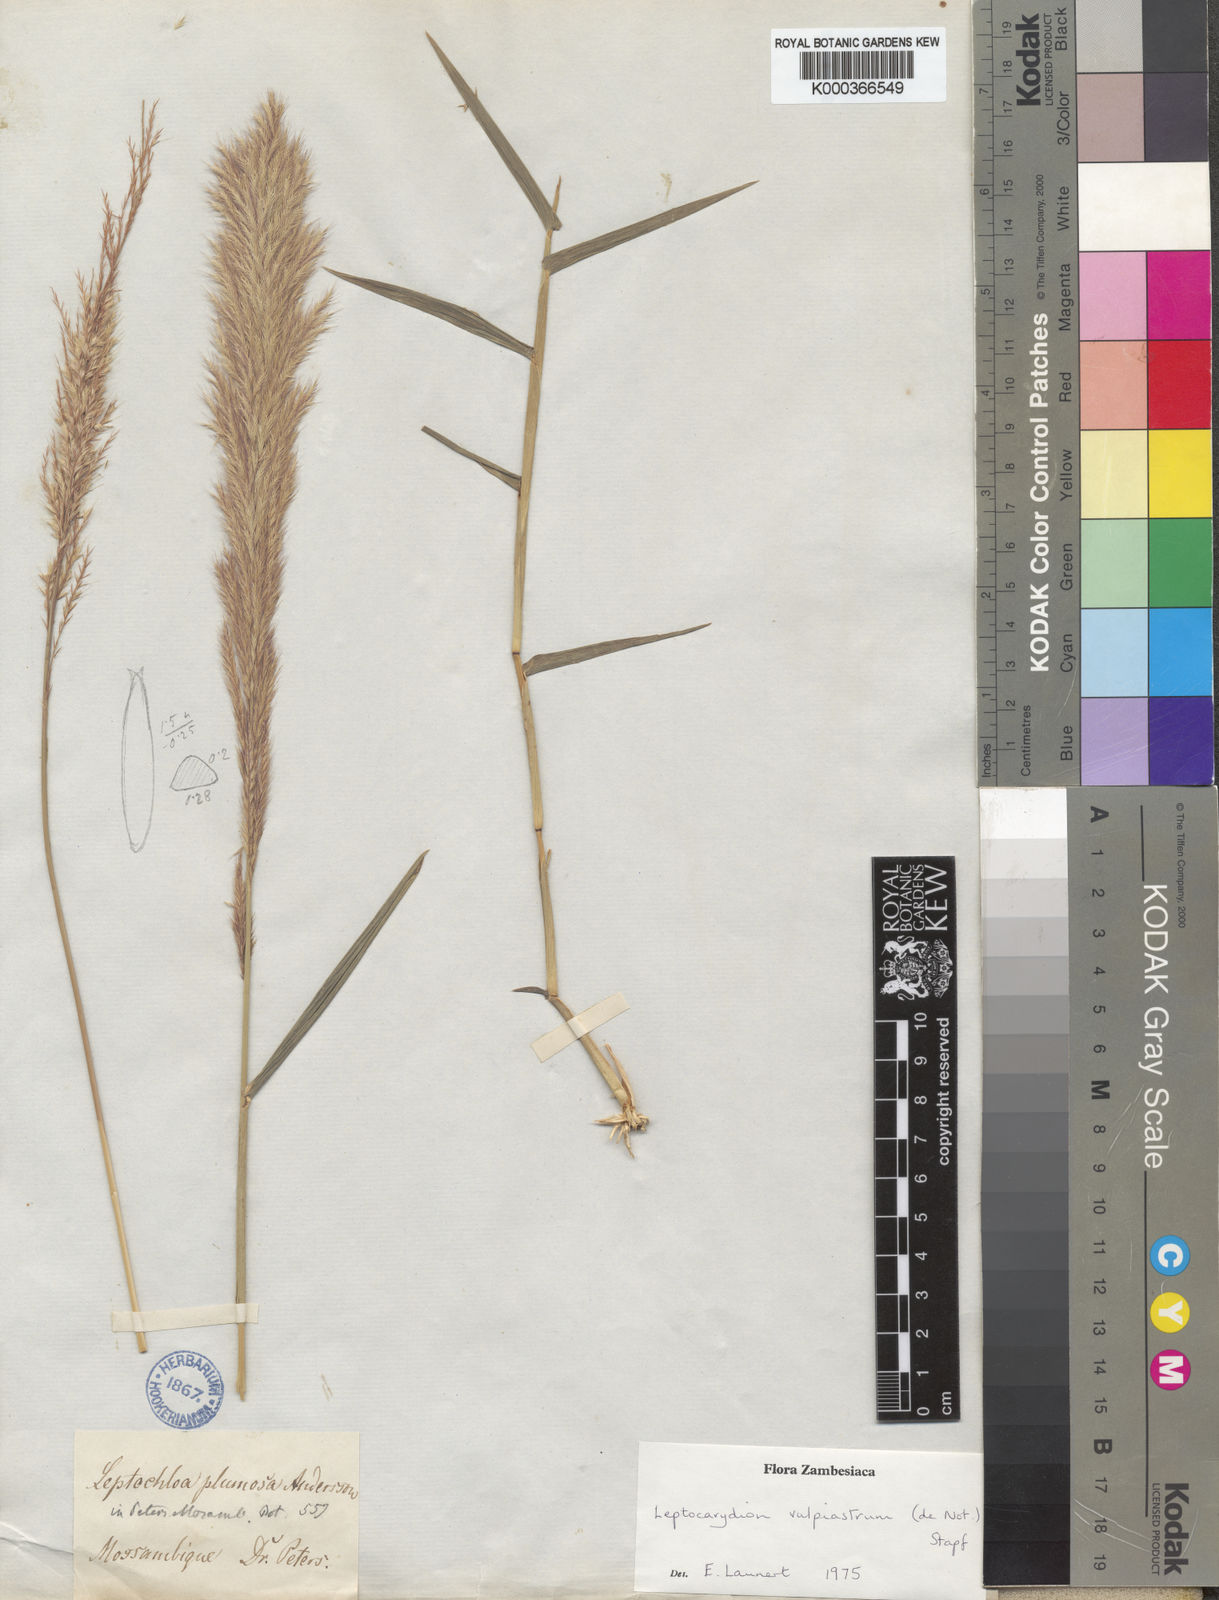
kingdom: Plantae
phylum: Tracheophyta
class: Liliopsida
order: Poales
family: Poaceae
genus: Leptocarydion
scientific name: Leptocarydion vulpiastrum
